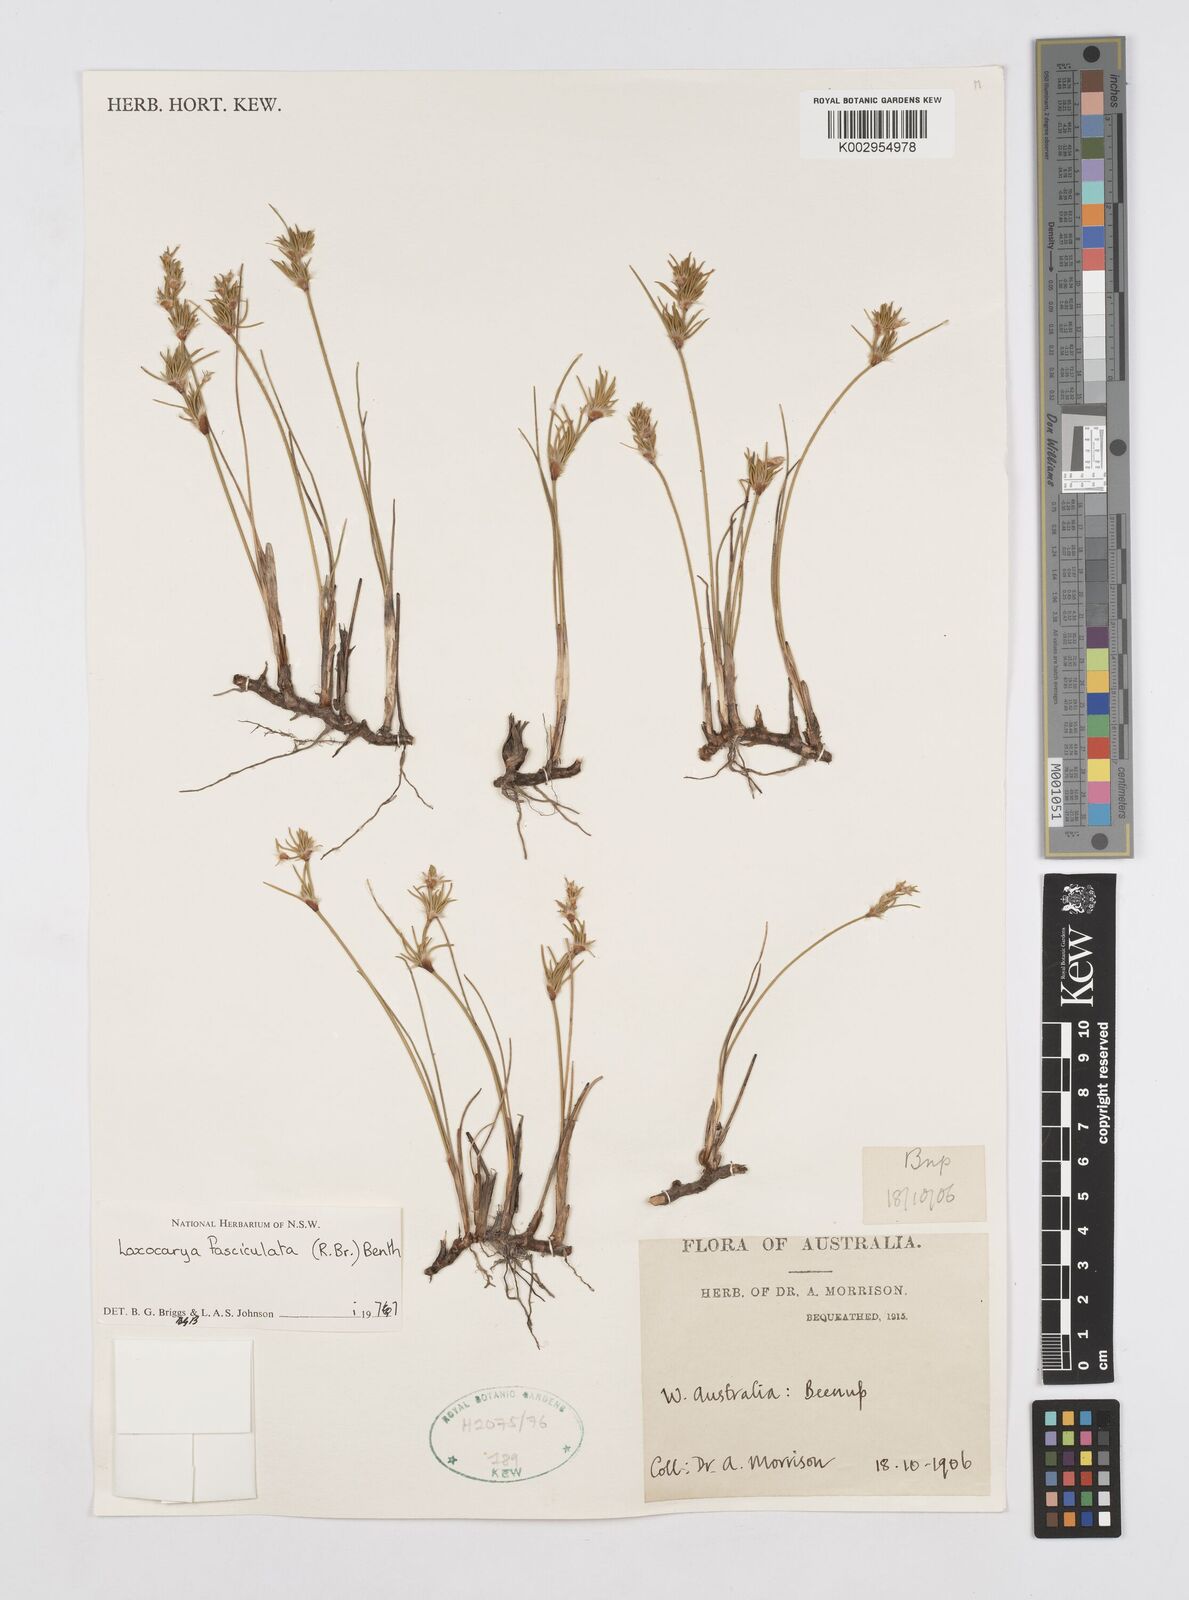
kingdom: Plantae
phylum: Tracheophyta
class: Liliopsida
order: Poales
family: Restionaceae
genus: Desmocladus
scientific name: Desmocladus fasciculatus
